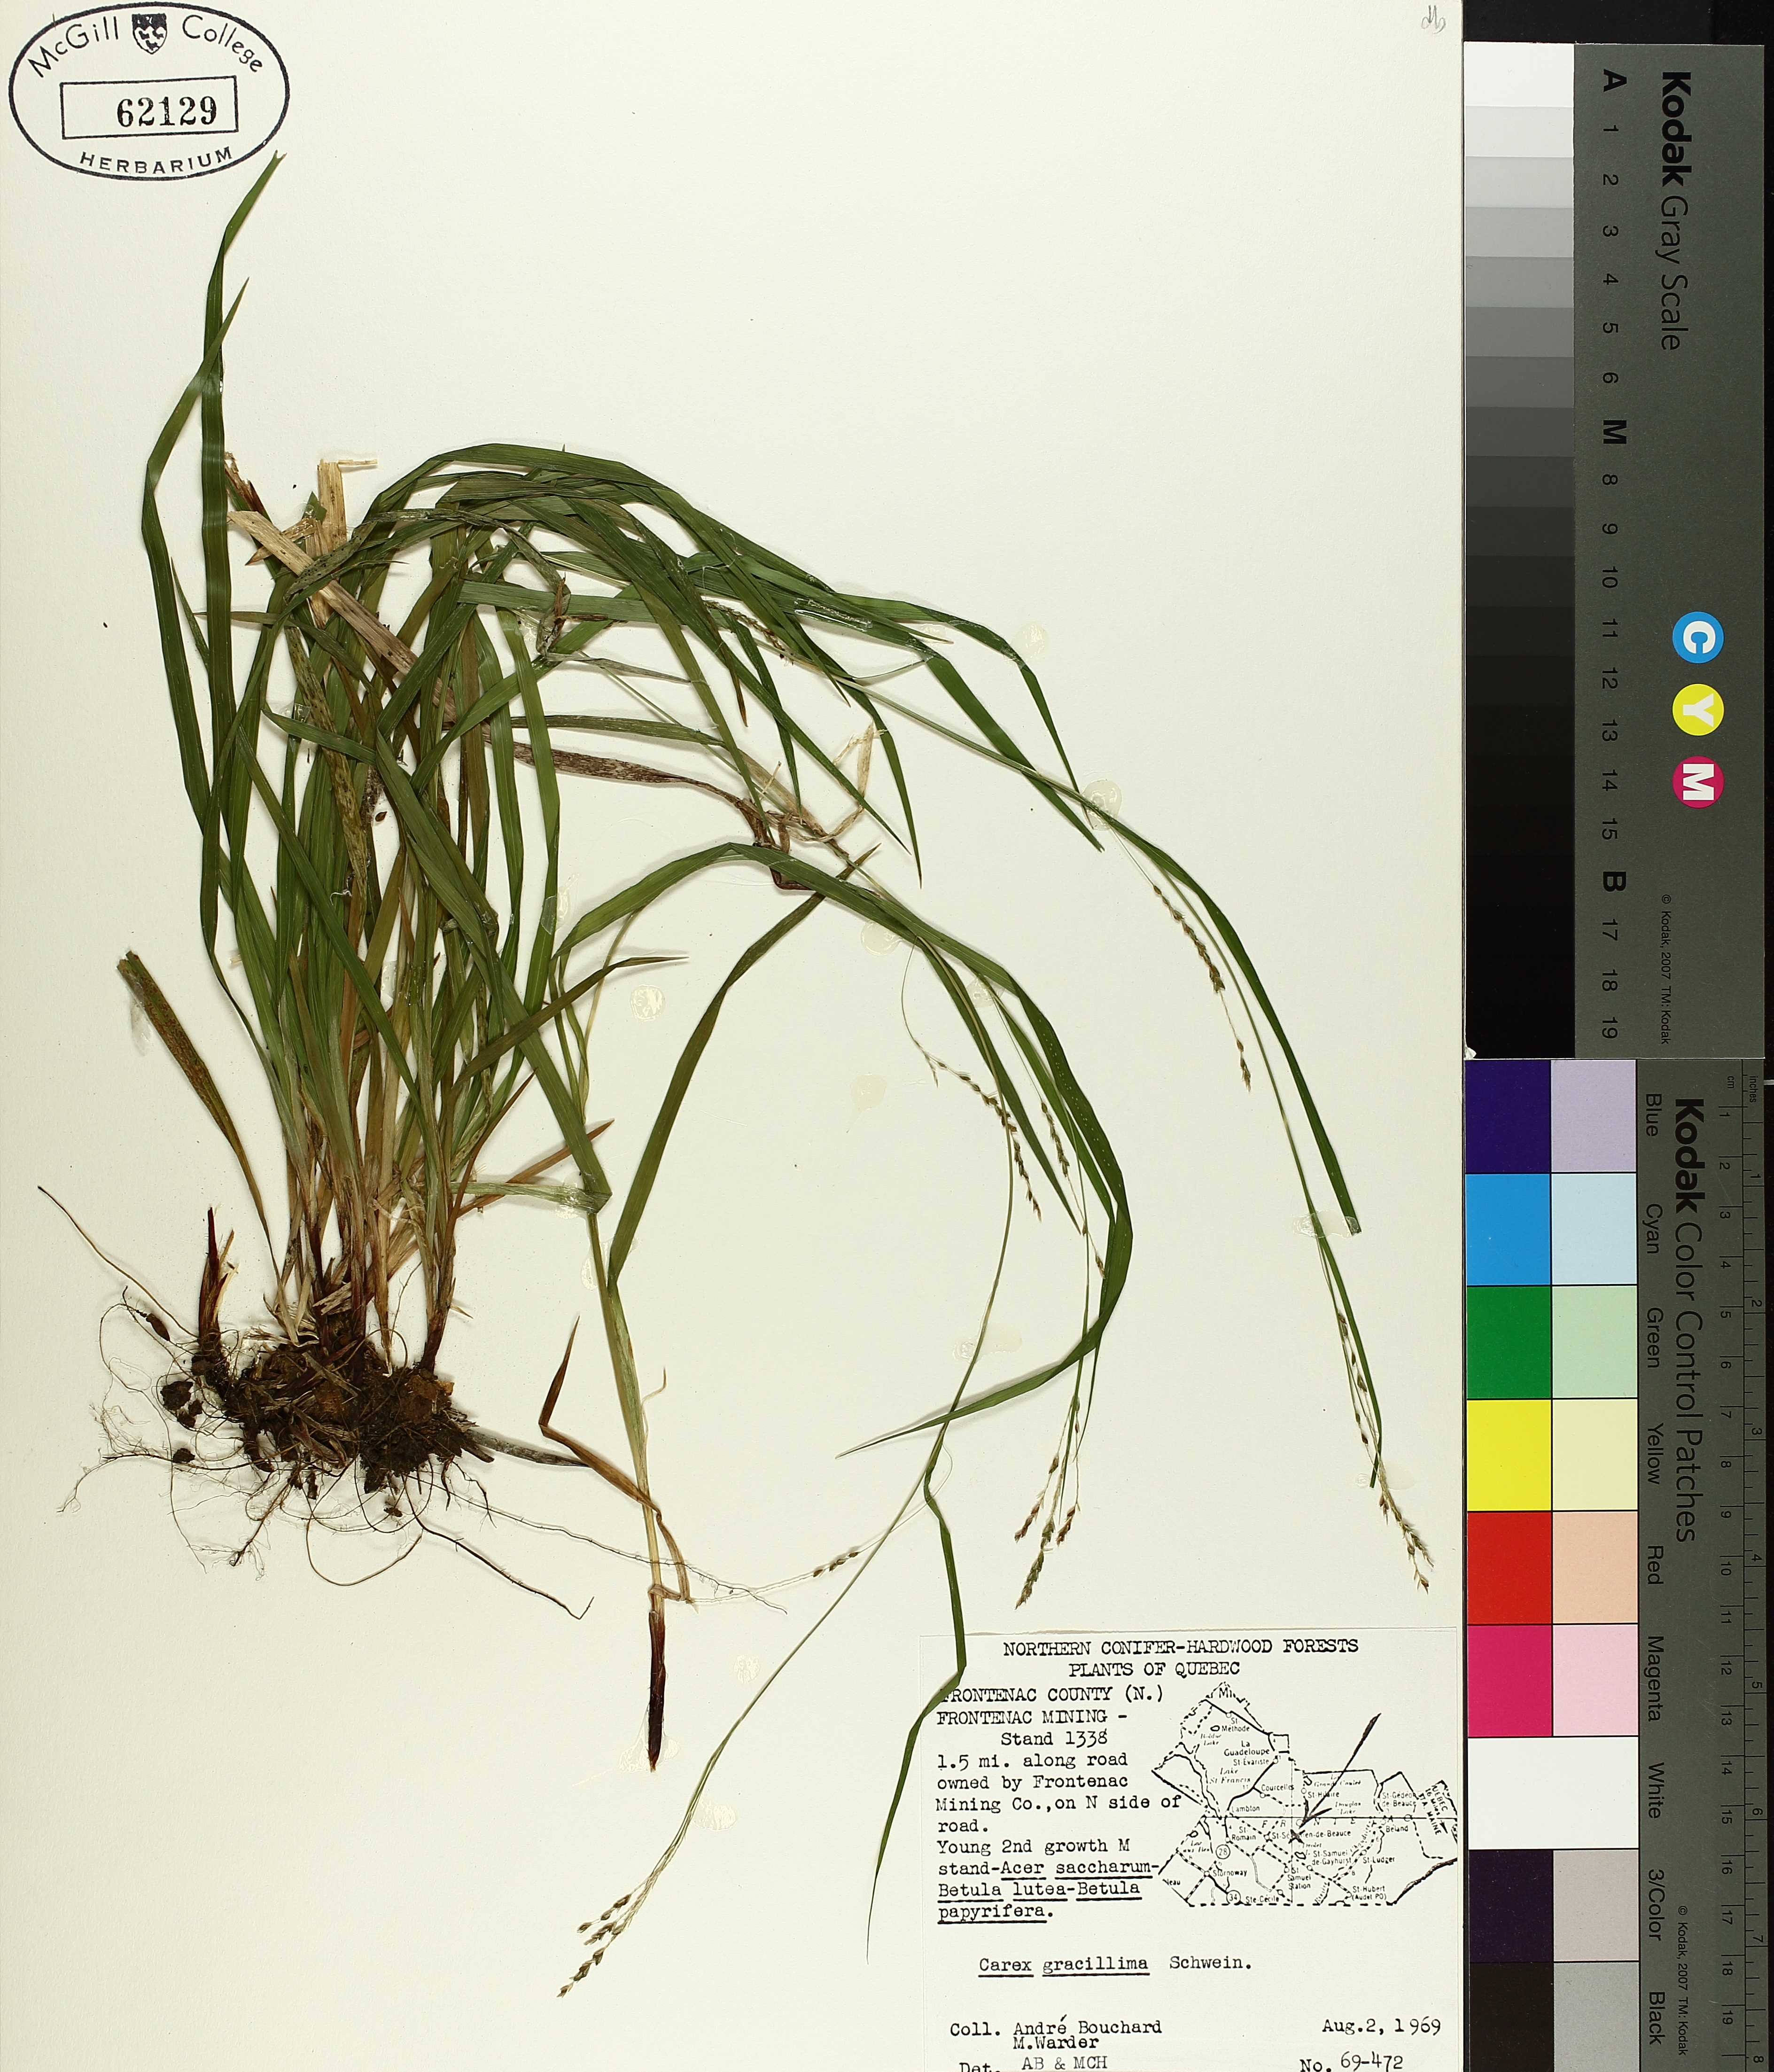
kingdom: Plantae
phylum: Tracheophyta
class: Liliopsida
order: Poales
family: Cyperaceae
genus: Carex
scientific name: Carex gracillima
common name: Graceful sedge
